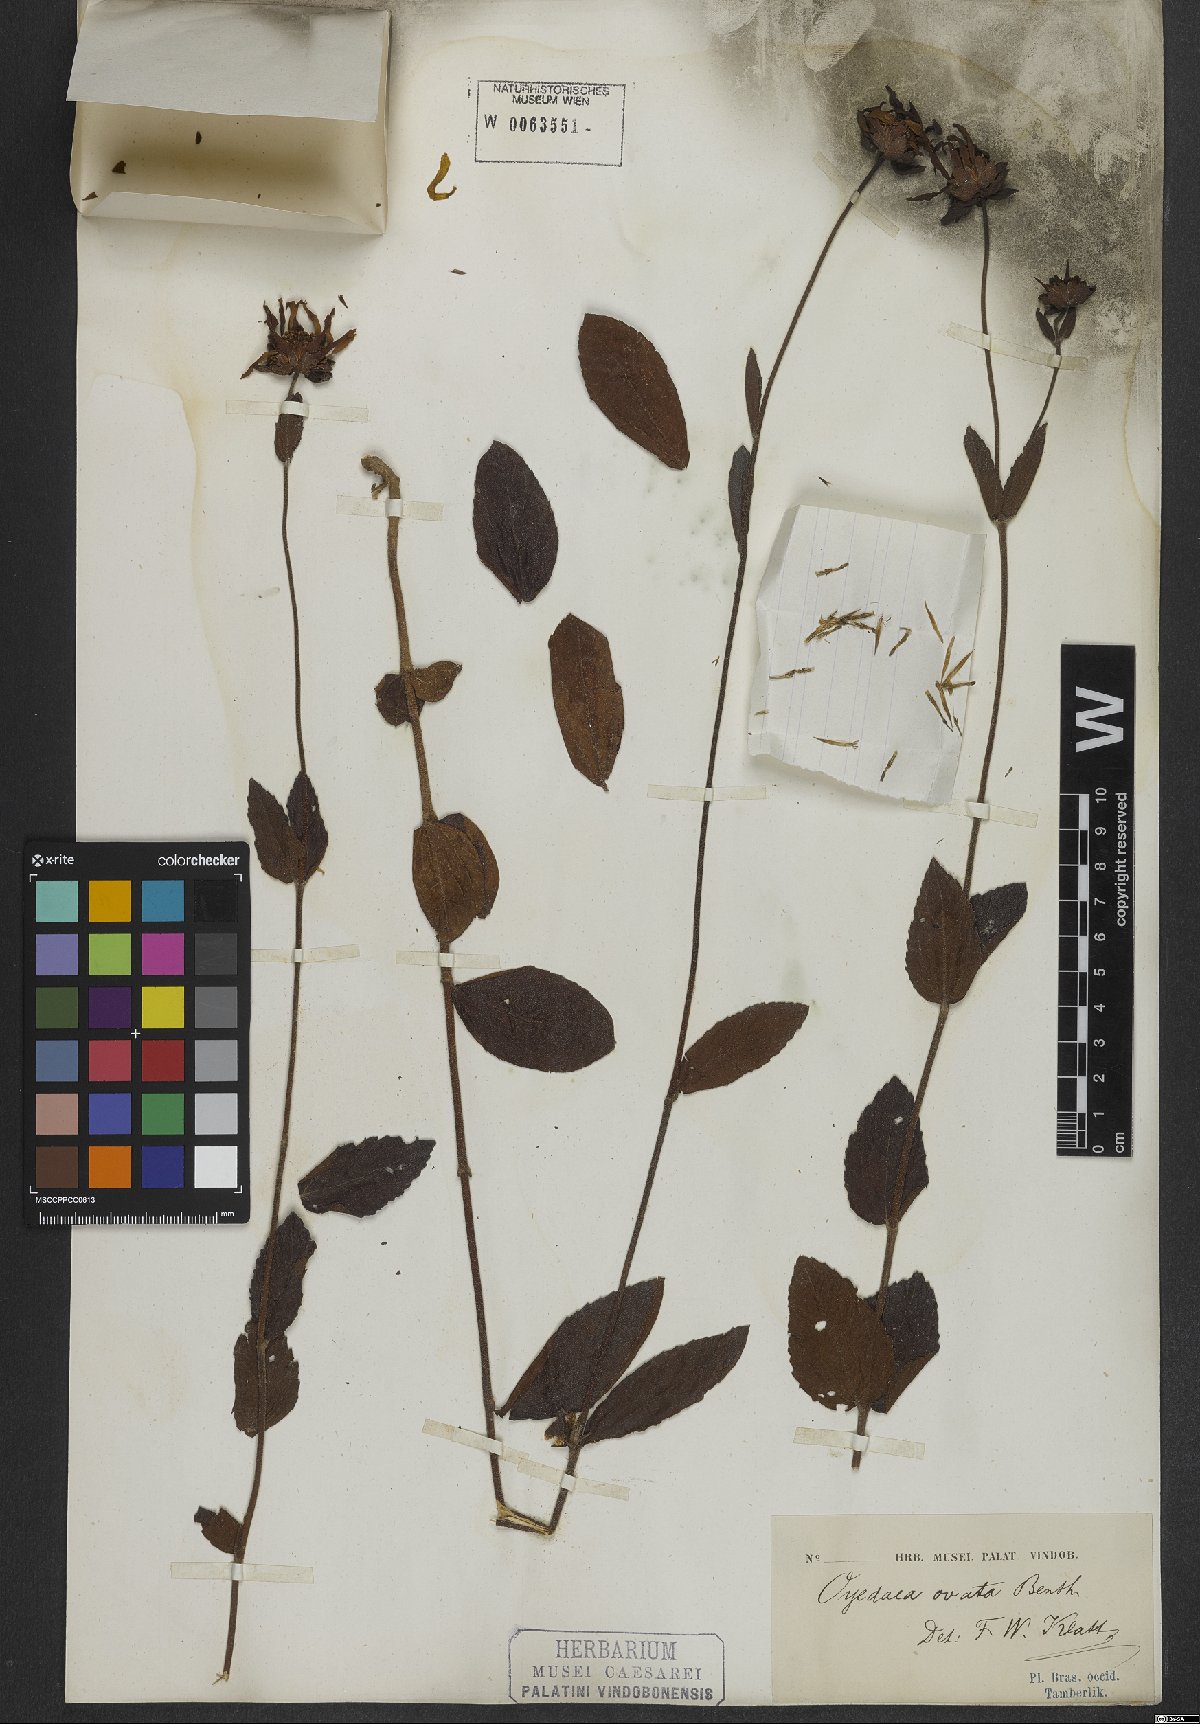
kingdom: Plantae
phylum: Tracheophyta
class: Magnoliopsida
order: Asterales
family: Asteraceae
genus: Oyedaea
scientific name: Oyedaea ovata
